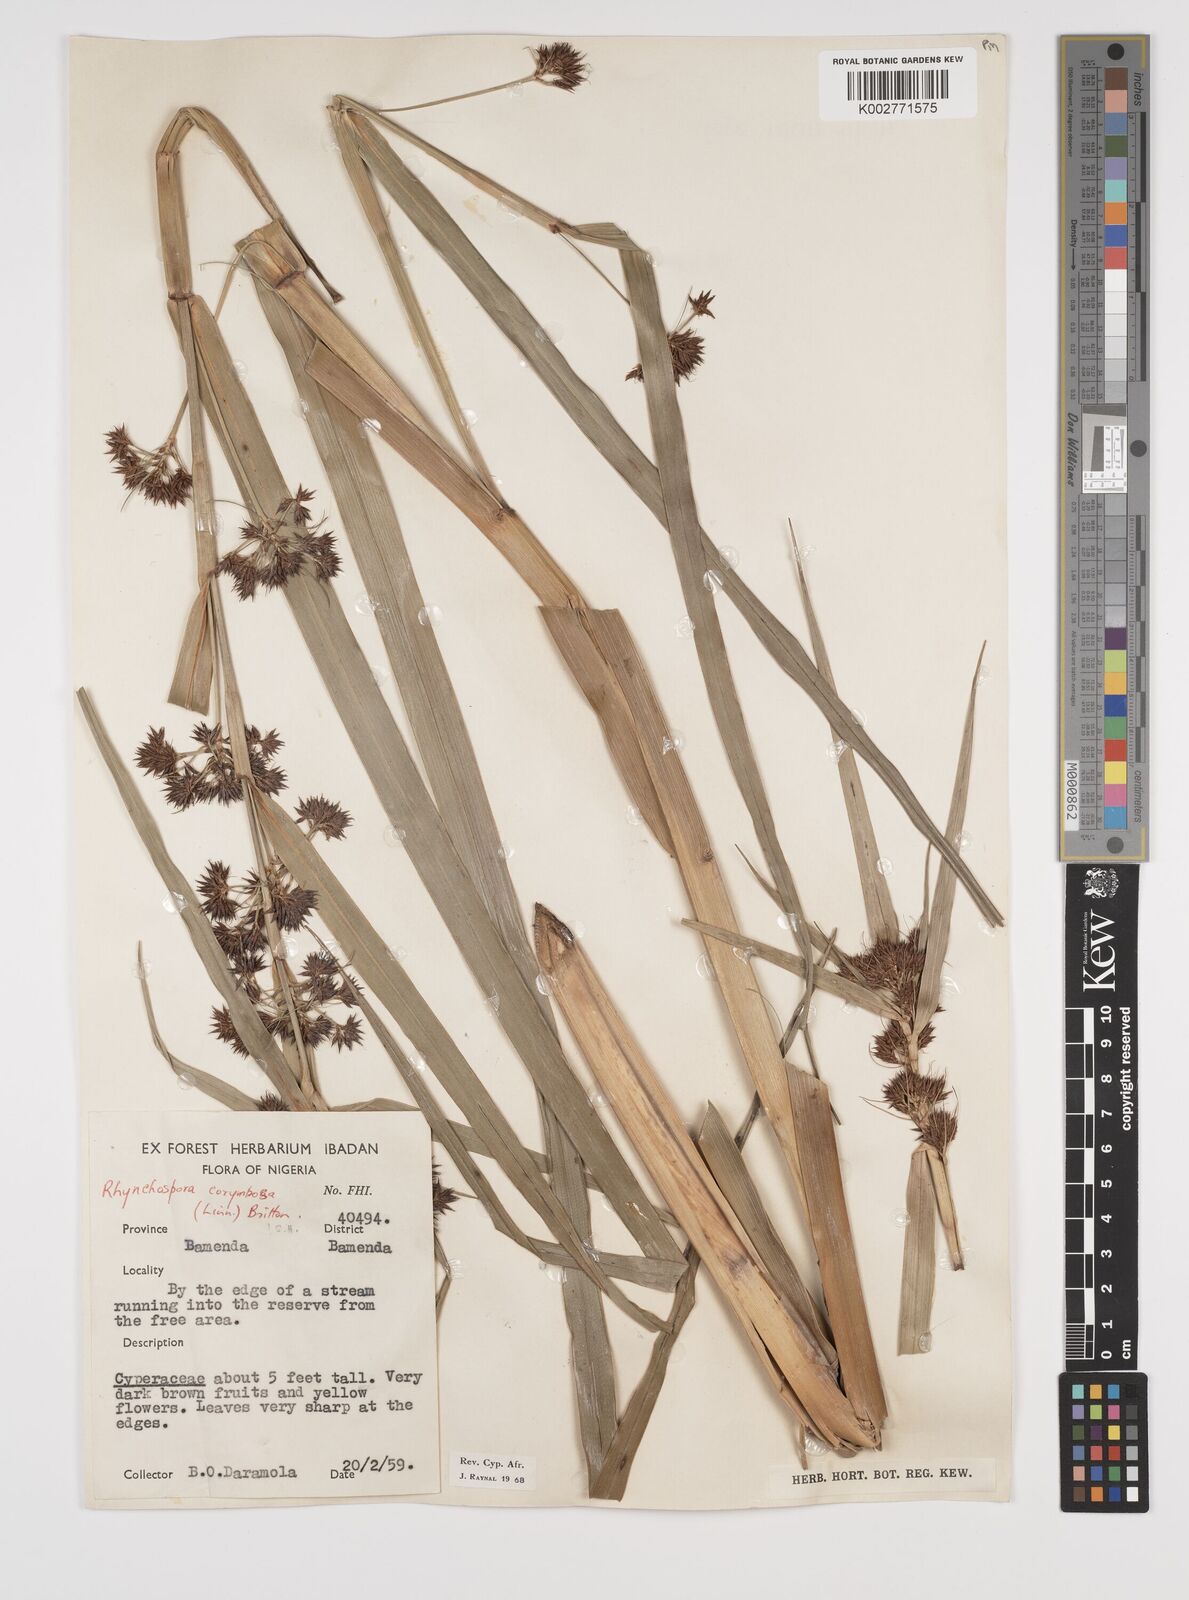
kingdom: Plantae
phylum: Tracheophyta
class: Liliopsida
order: Poales
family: Cyperaceae
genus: Rhynchospora
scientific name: Rhynchospora corymbosa
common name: Golden beak sedge
